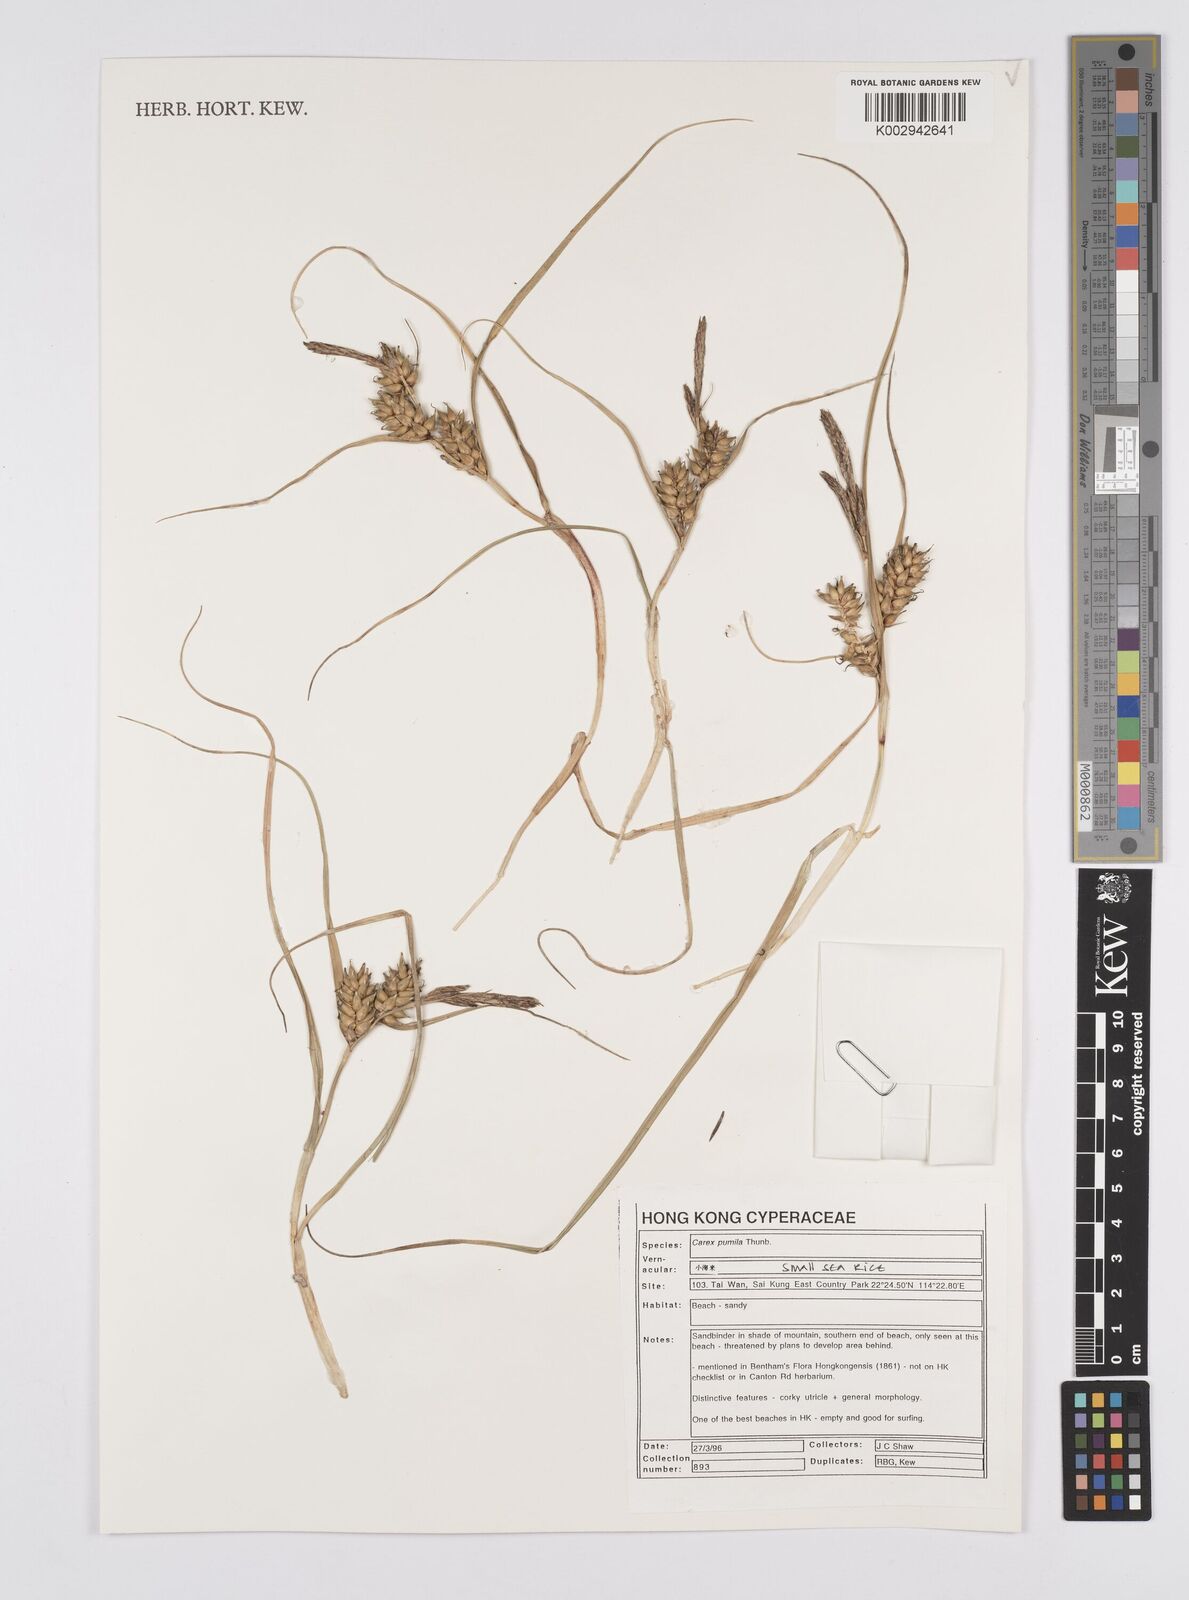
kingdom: Plantae
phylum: Tracheophyta
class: Liliopsida
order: Poales
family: Cyperaceae
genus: Carex
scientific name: Carex pumila
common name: Dwarf sedge
